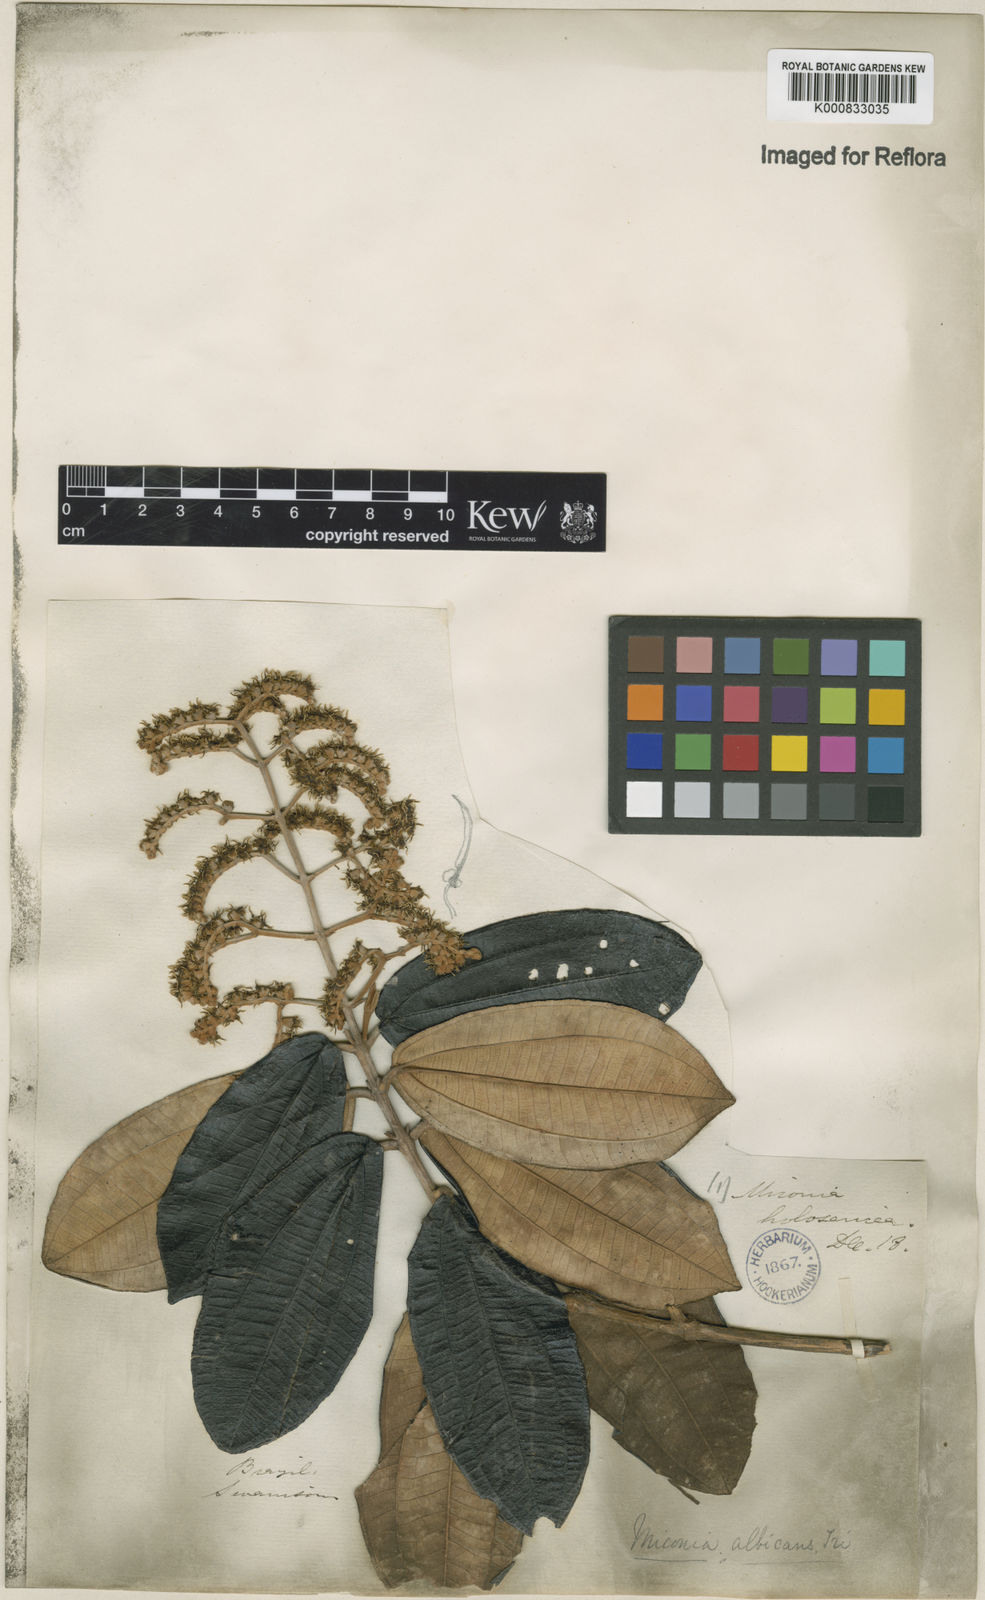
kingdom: Plantae
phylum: Tracheophyta
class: Magnoliopsida
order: Myrtales
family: Melastomataceae
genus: Miconia
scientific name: Miconia albicans
